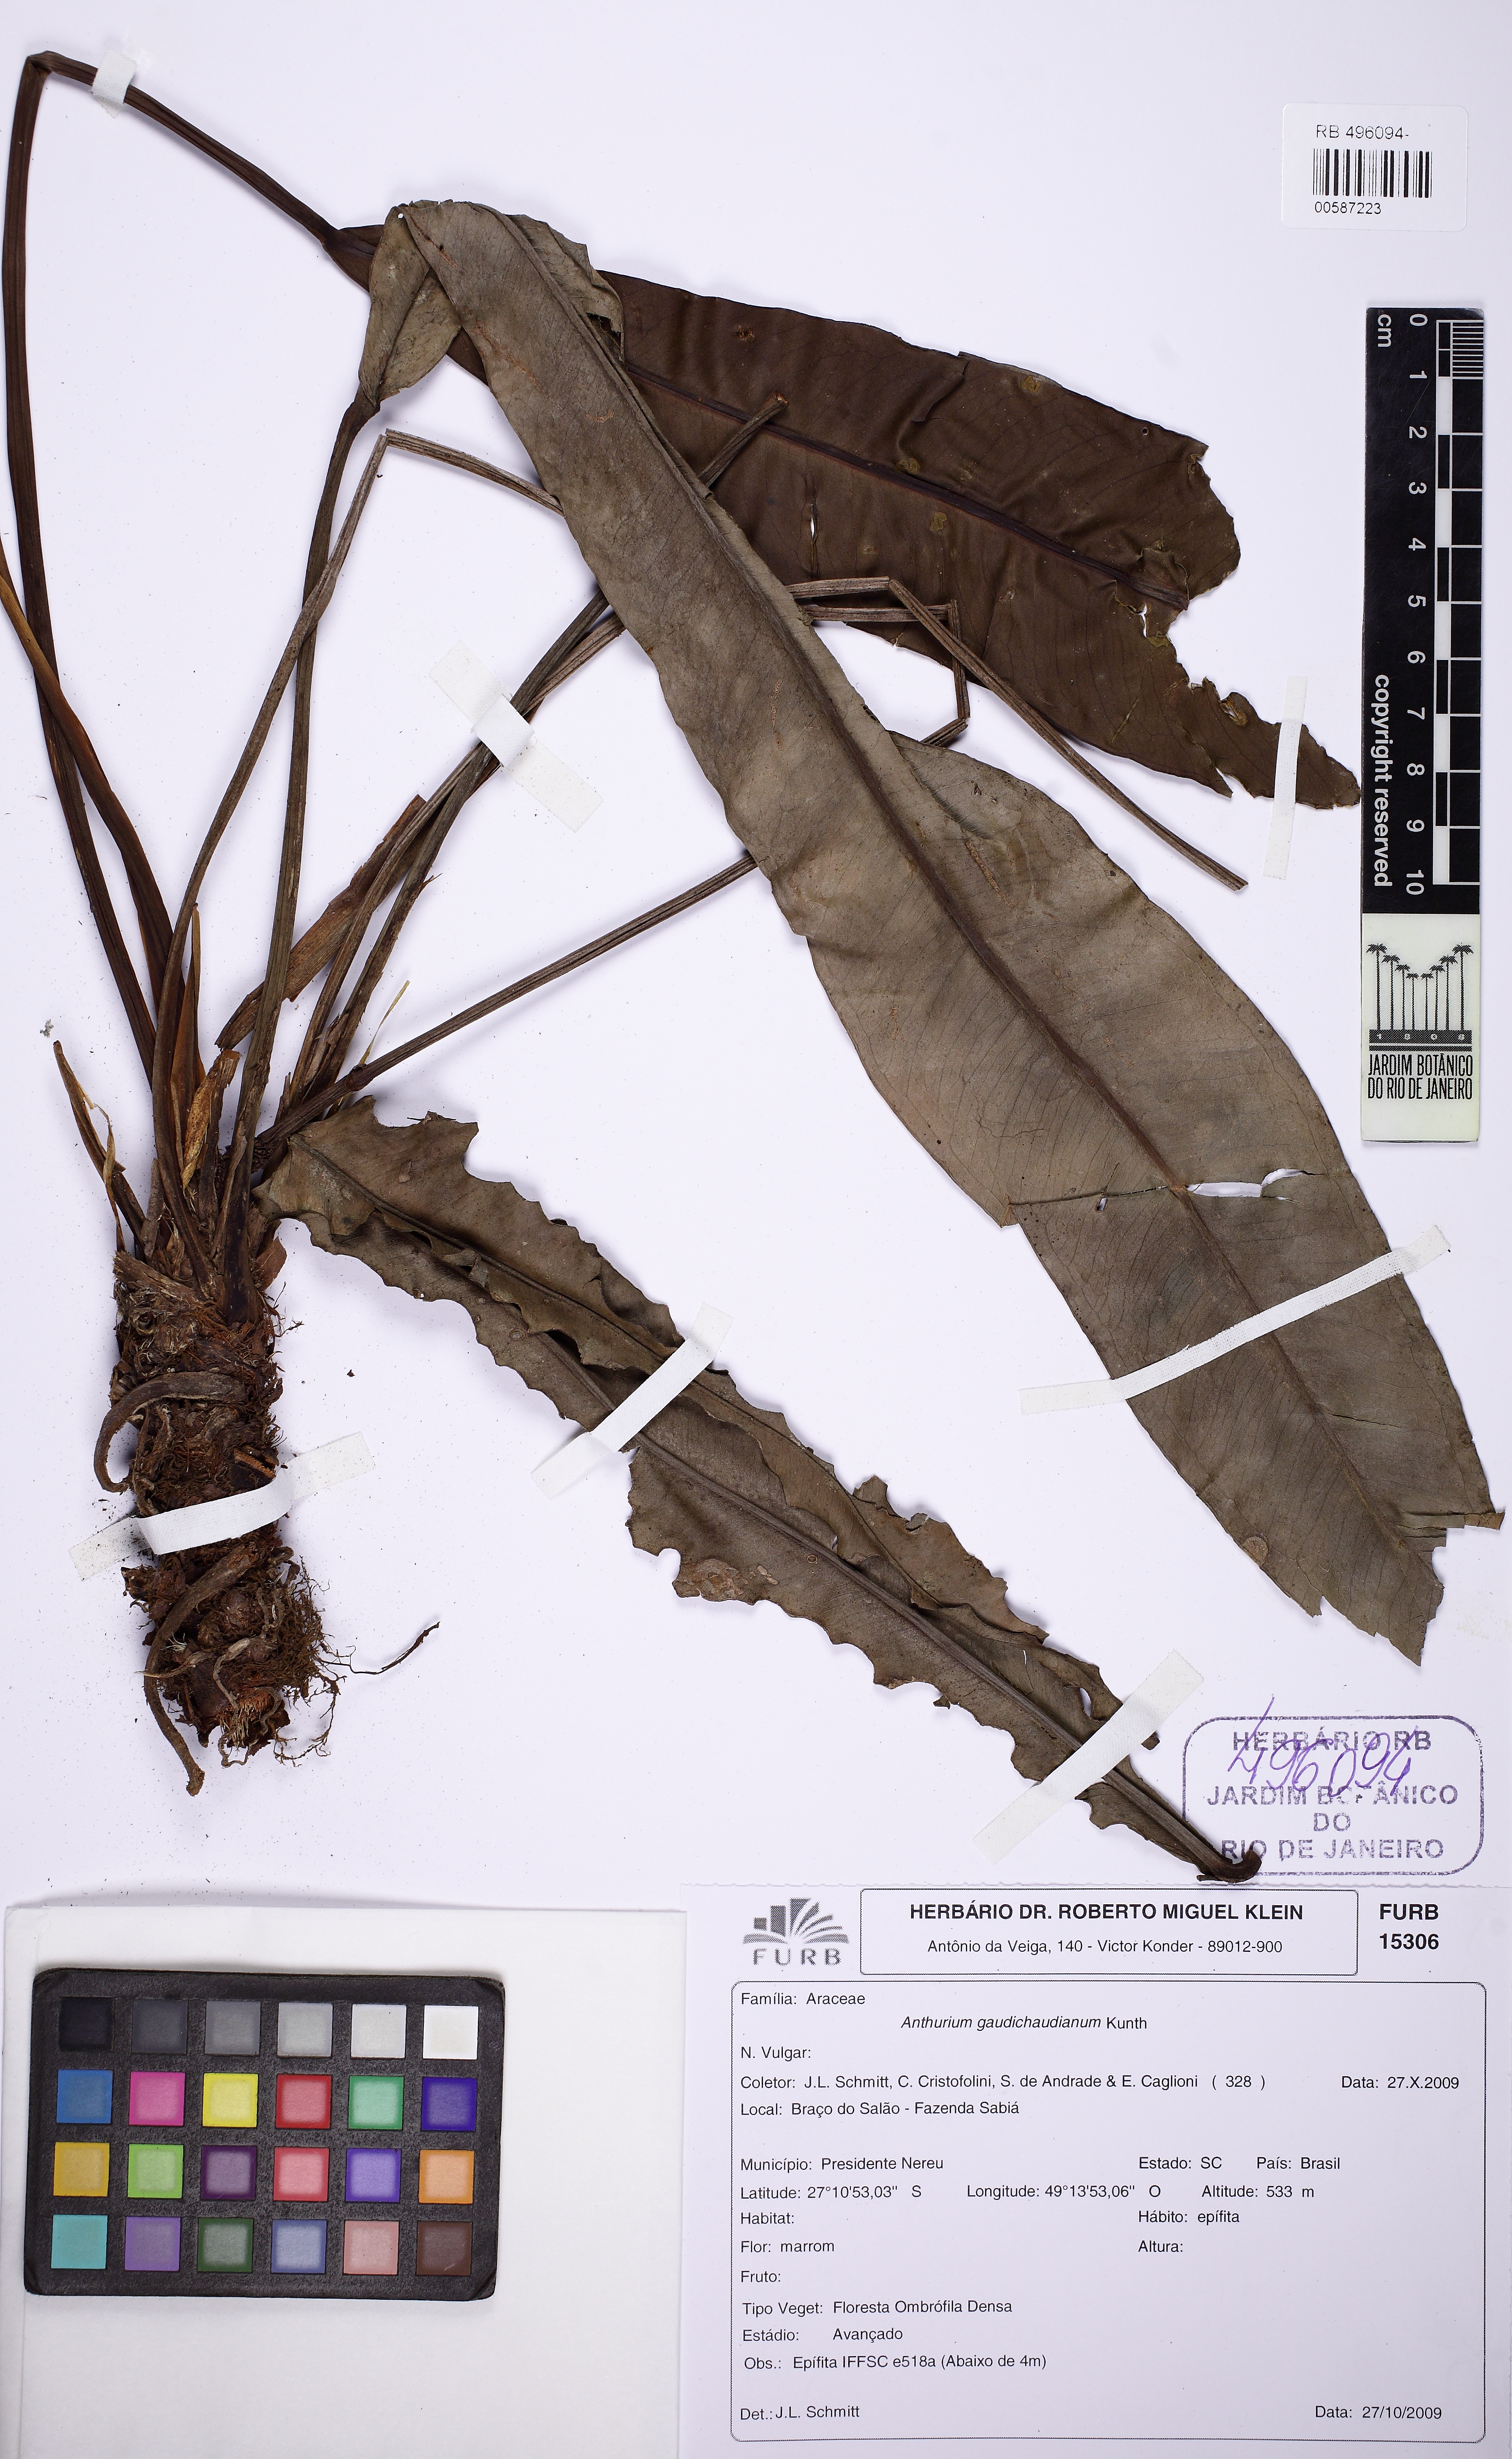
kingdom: Plantae
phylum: Tracheophyta
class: Liliopsida
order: Alismatales
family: Araceae
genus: Anthurium
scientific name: Anthurium gaudichaudianum
